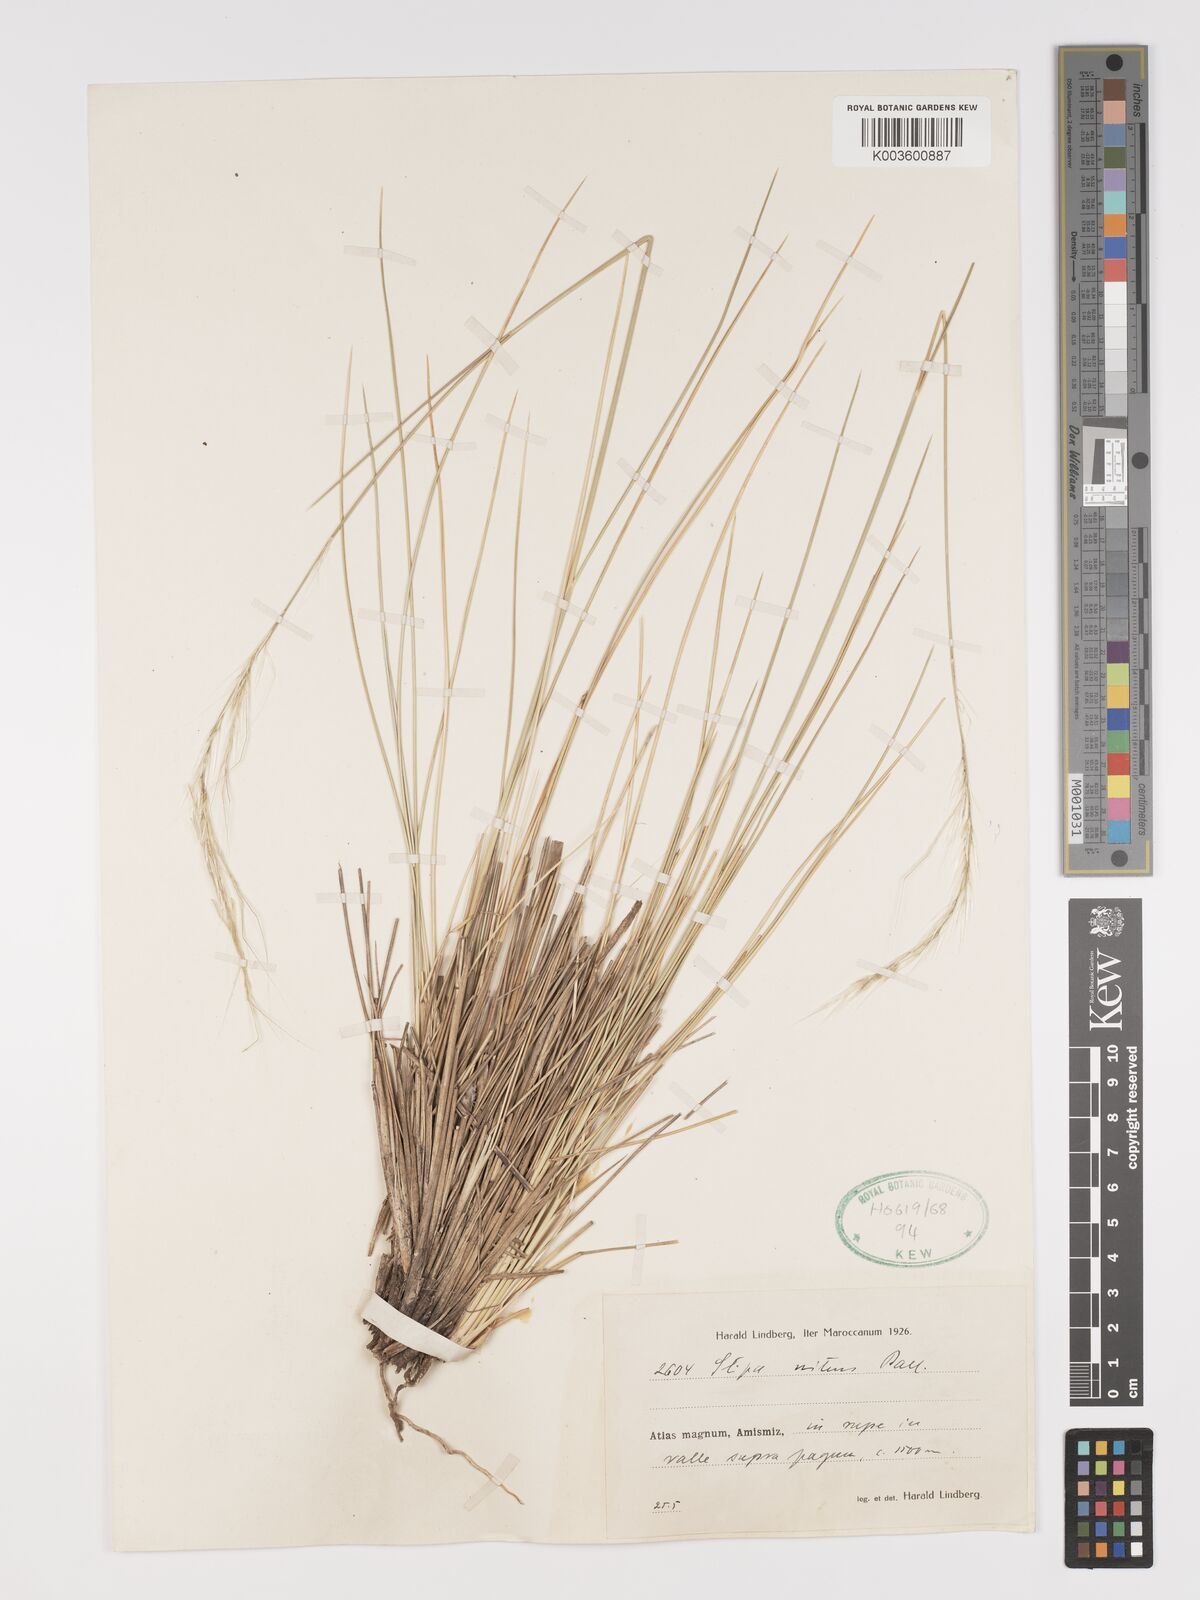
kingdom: Plantae
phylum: Tracheophyta
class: Liliopsida
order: Poales
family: Poaceae
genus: Stipa
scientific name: Stipa nitens
